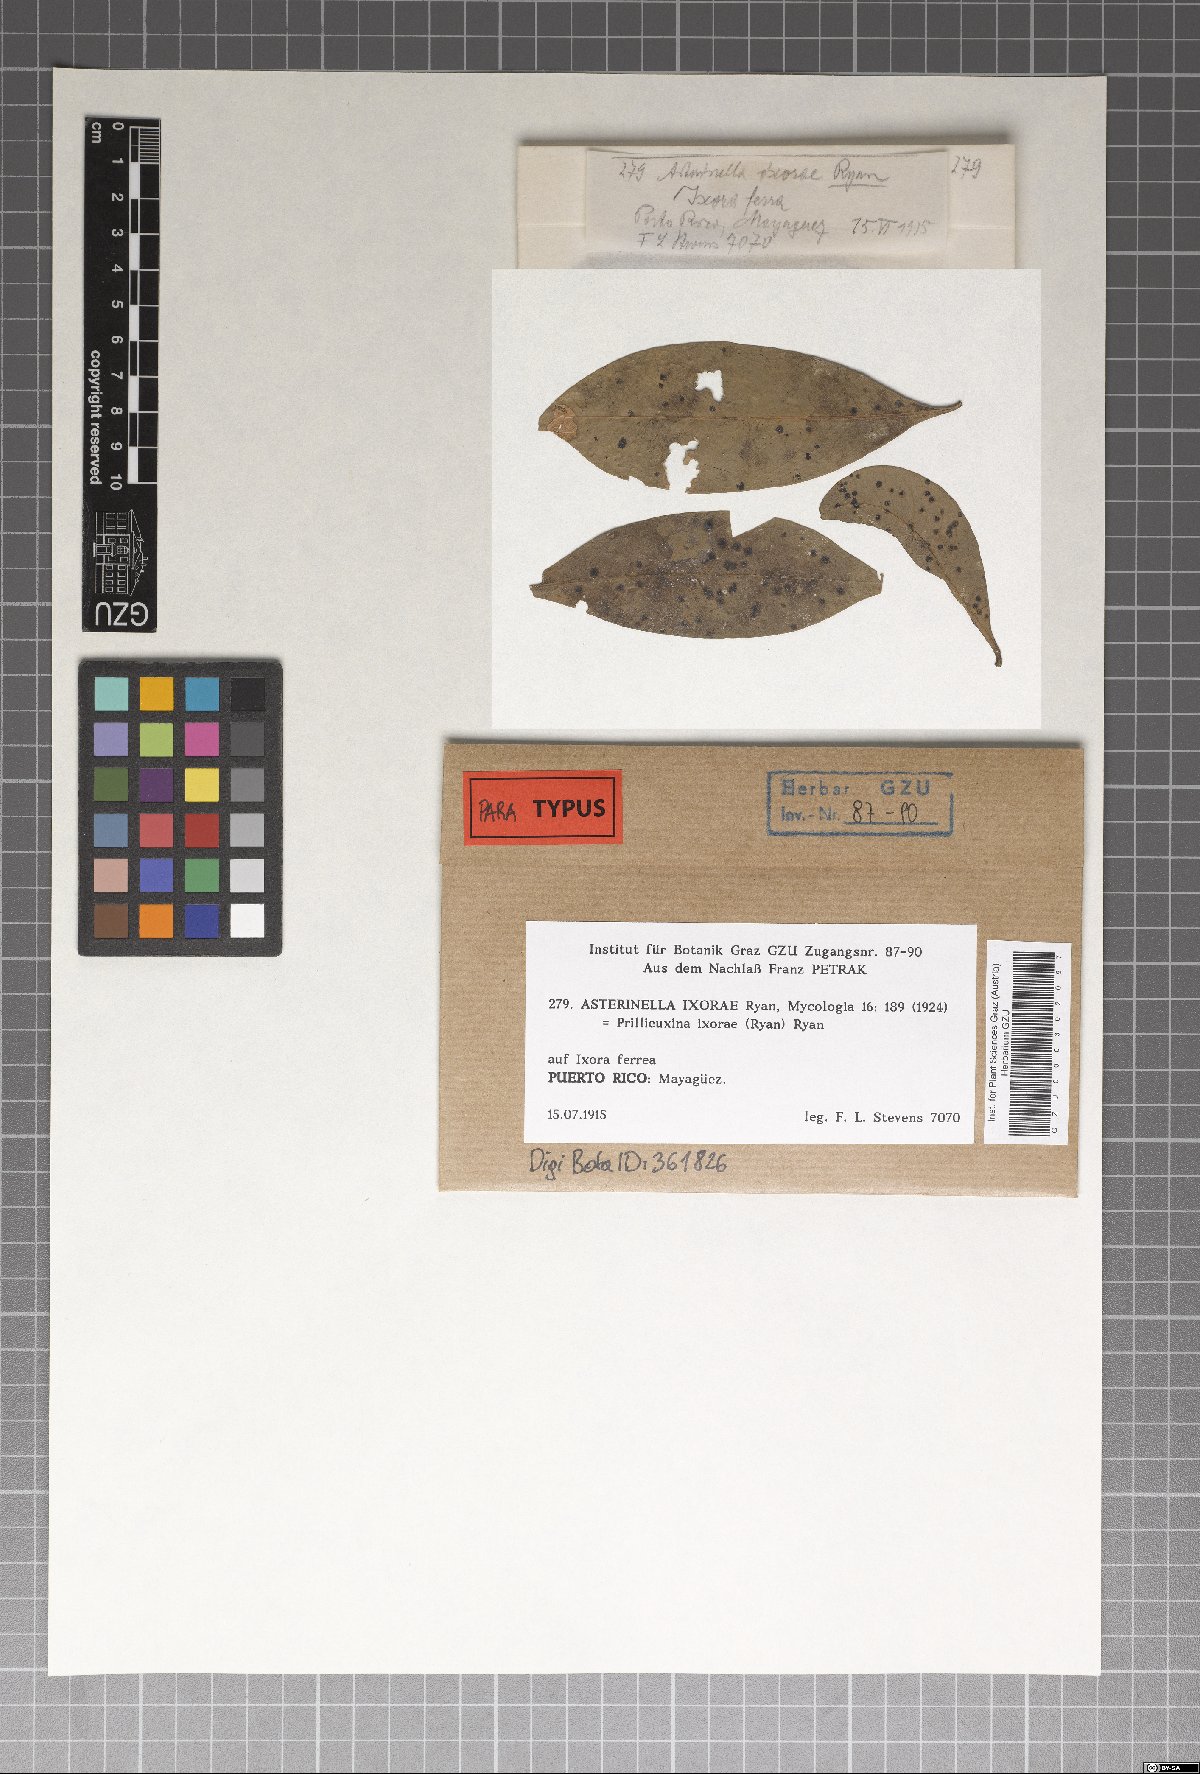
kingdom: Fungi
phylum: Ascomycota
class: Dothideomycetes
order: Microthyriales
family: Microthyriaceae
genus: Asterinella
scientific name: Asterinella ixorae
